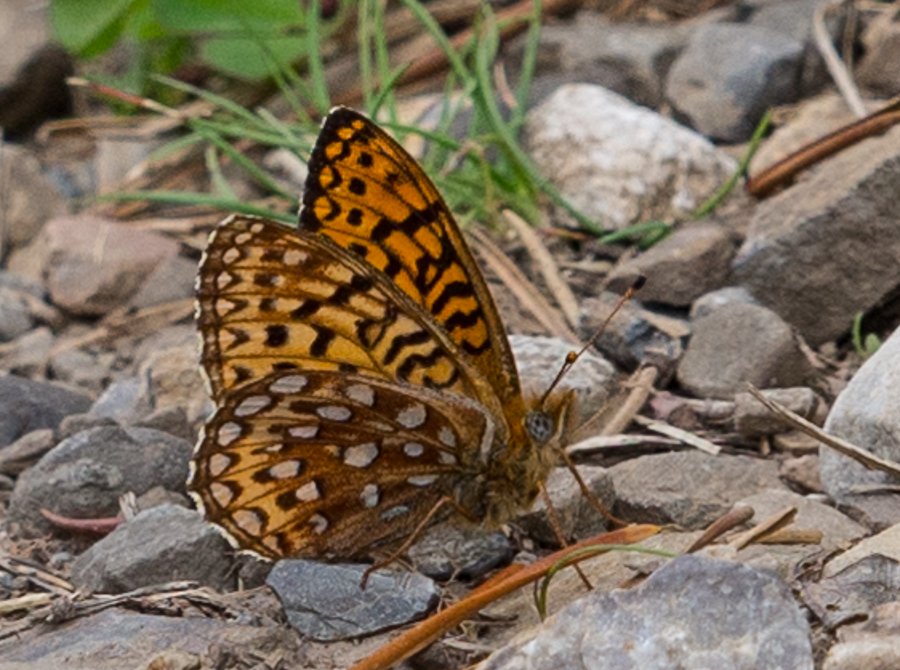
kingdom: Animalia
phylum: Arthropoda
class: Insecta
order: Lepidoptera
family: Nymphalidae
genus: Speyeria
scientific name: Speyeria atlantis
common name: Atlantis Fritillary
